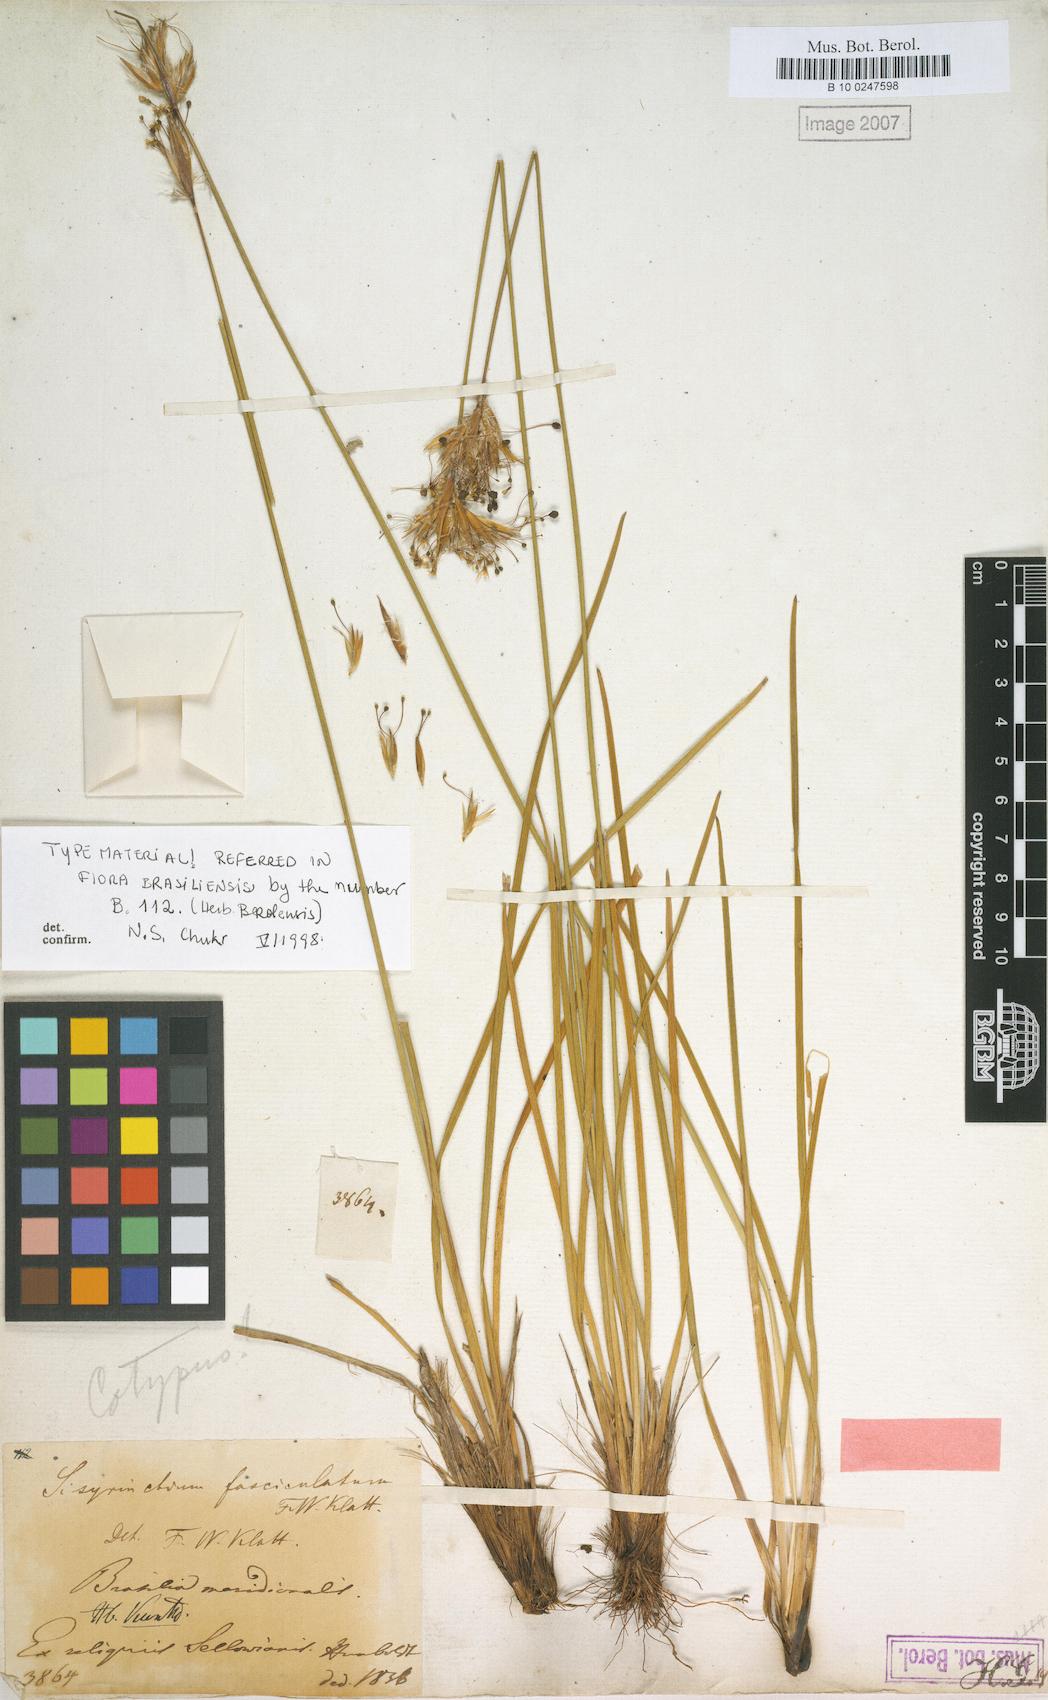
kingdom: Plantae
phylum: Tracheophyta
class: Liliopsida
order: Asparagales
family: Iridaceae
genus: Sisyrinchium
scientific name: Sisyrinchium fasciculatum
